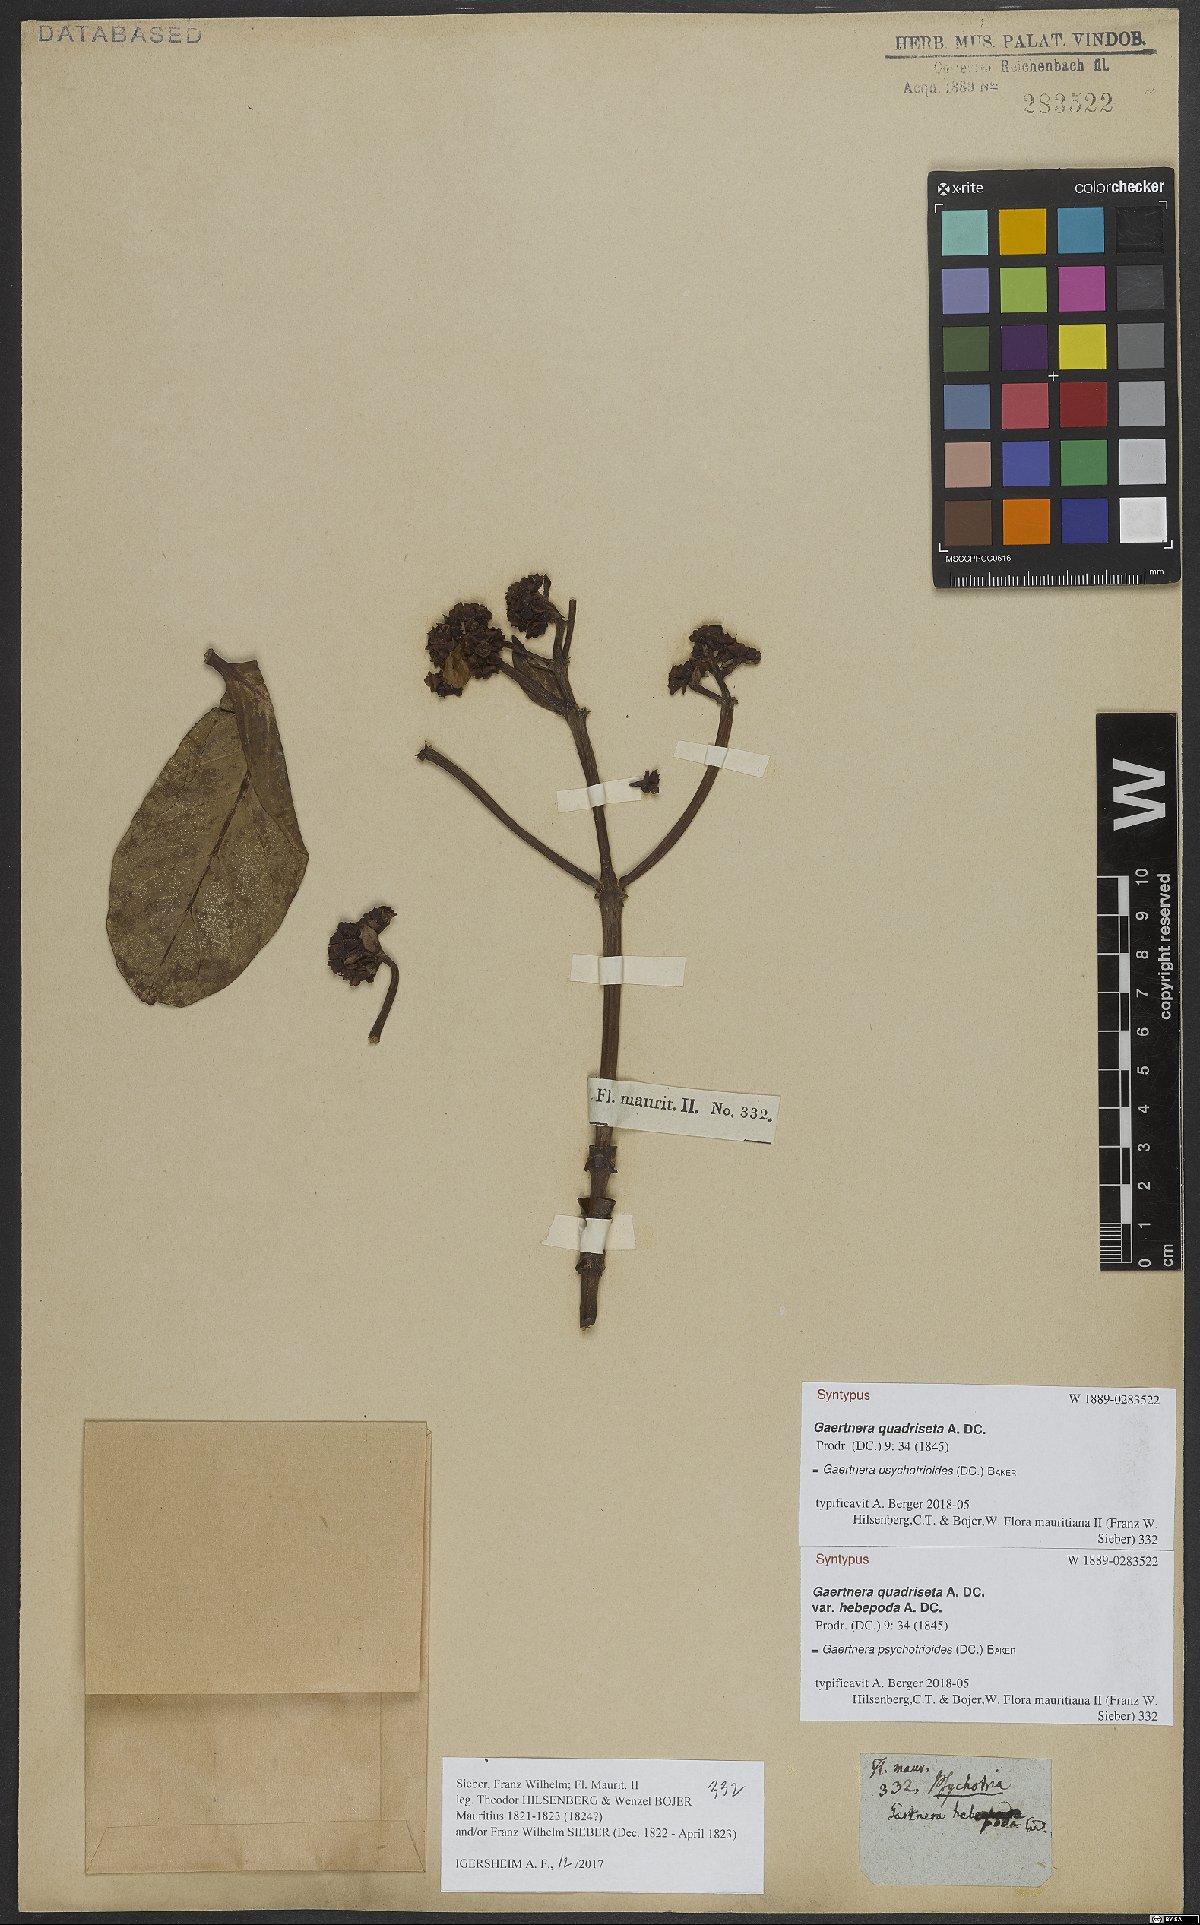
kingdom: Plantae
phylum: Tracheophyta
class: Magnoliopsida
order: Gentianales
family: Rubiaceae
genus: Gaertnera
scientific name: Gaertnera psychotrioides
